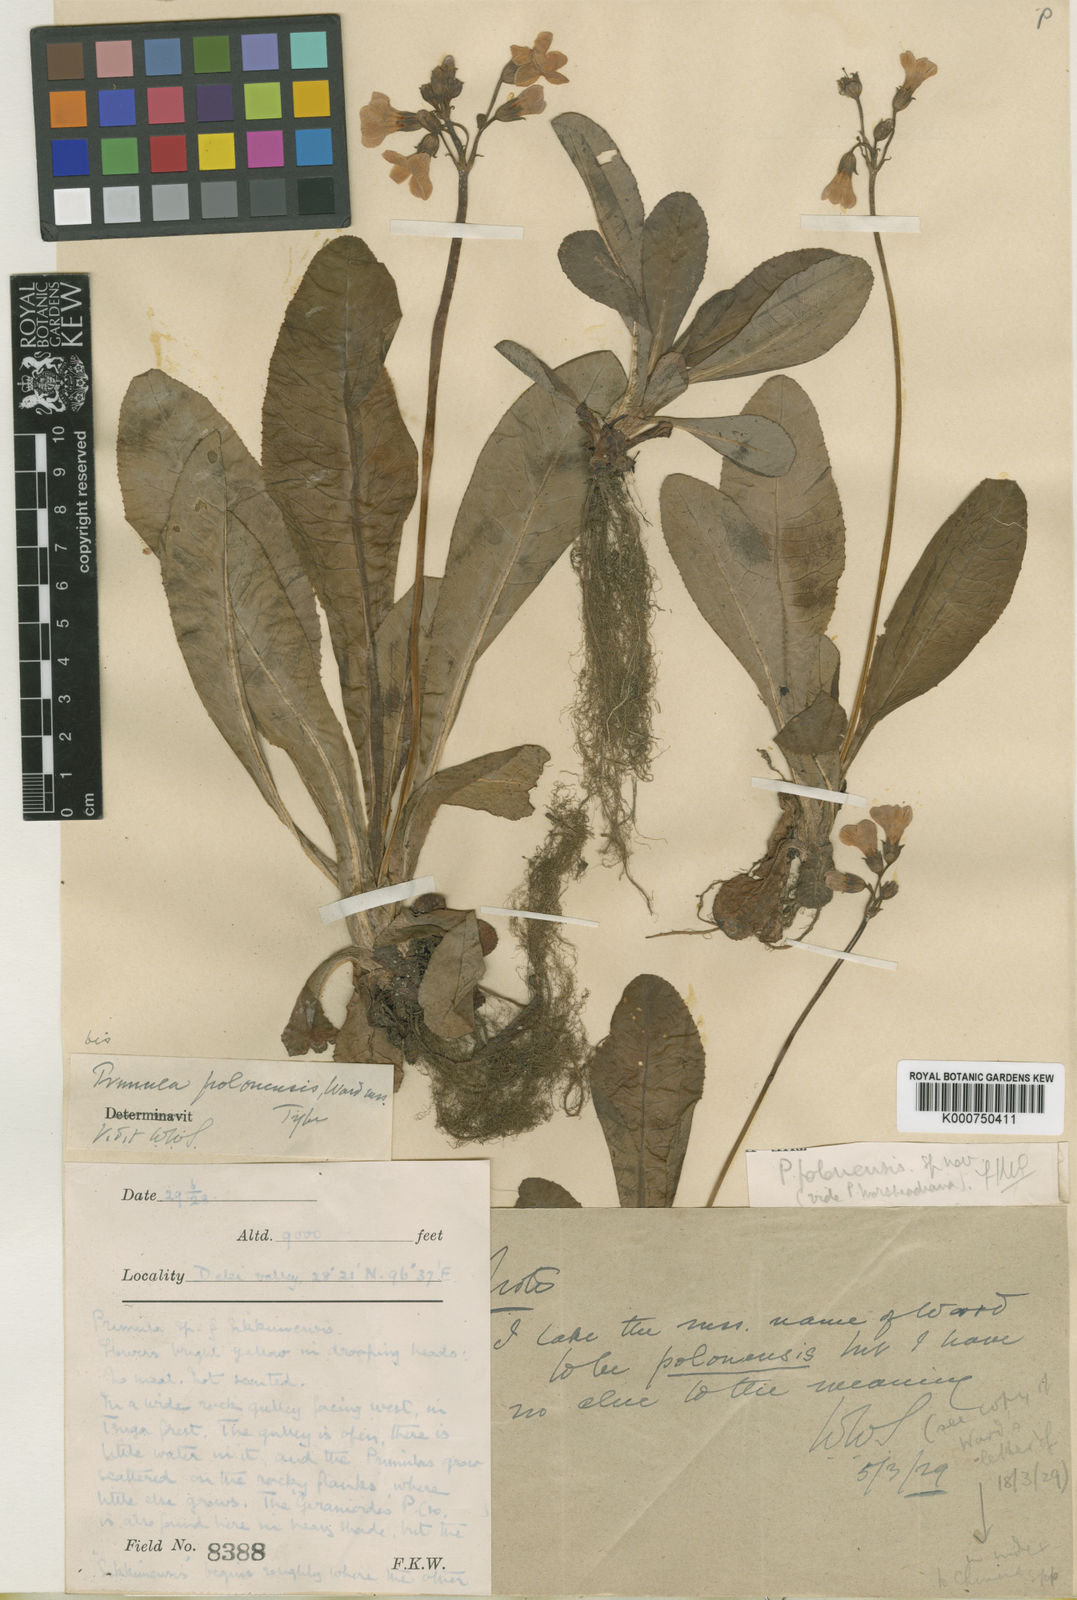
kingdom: Plantae
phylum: Tracheophyta
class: Magnoliopsida
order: Ericales
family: Primulaceae
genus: Primula
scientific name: Primula polonensis
